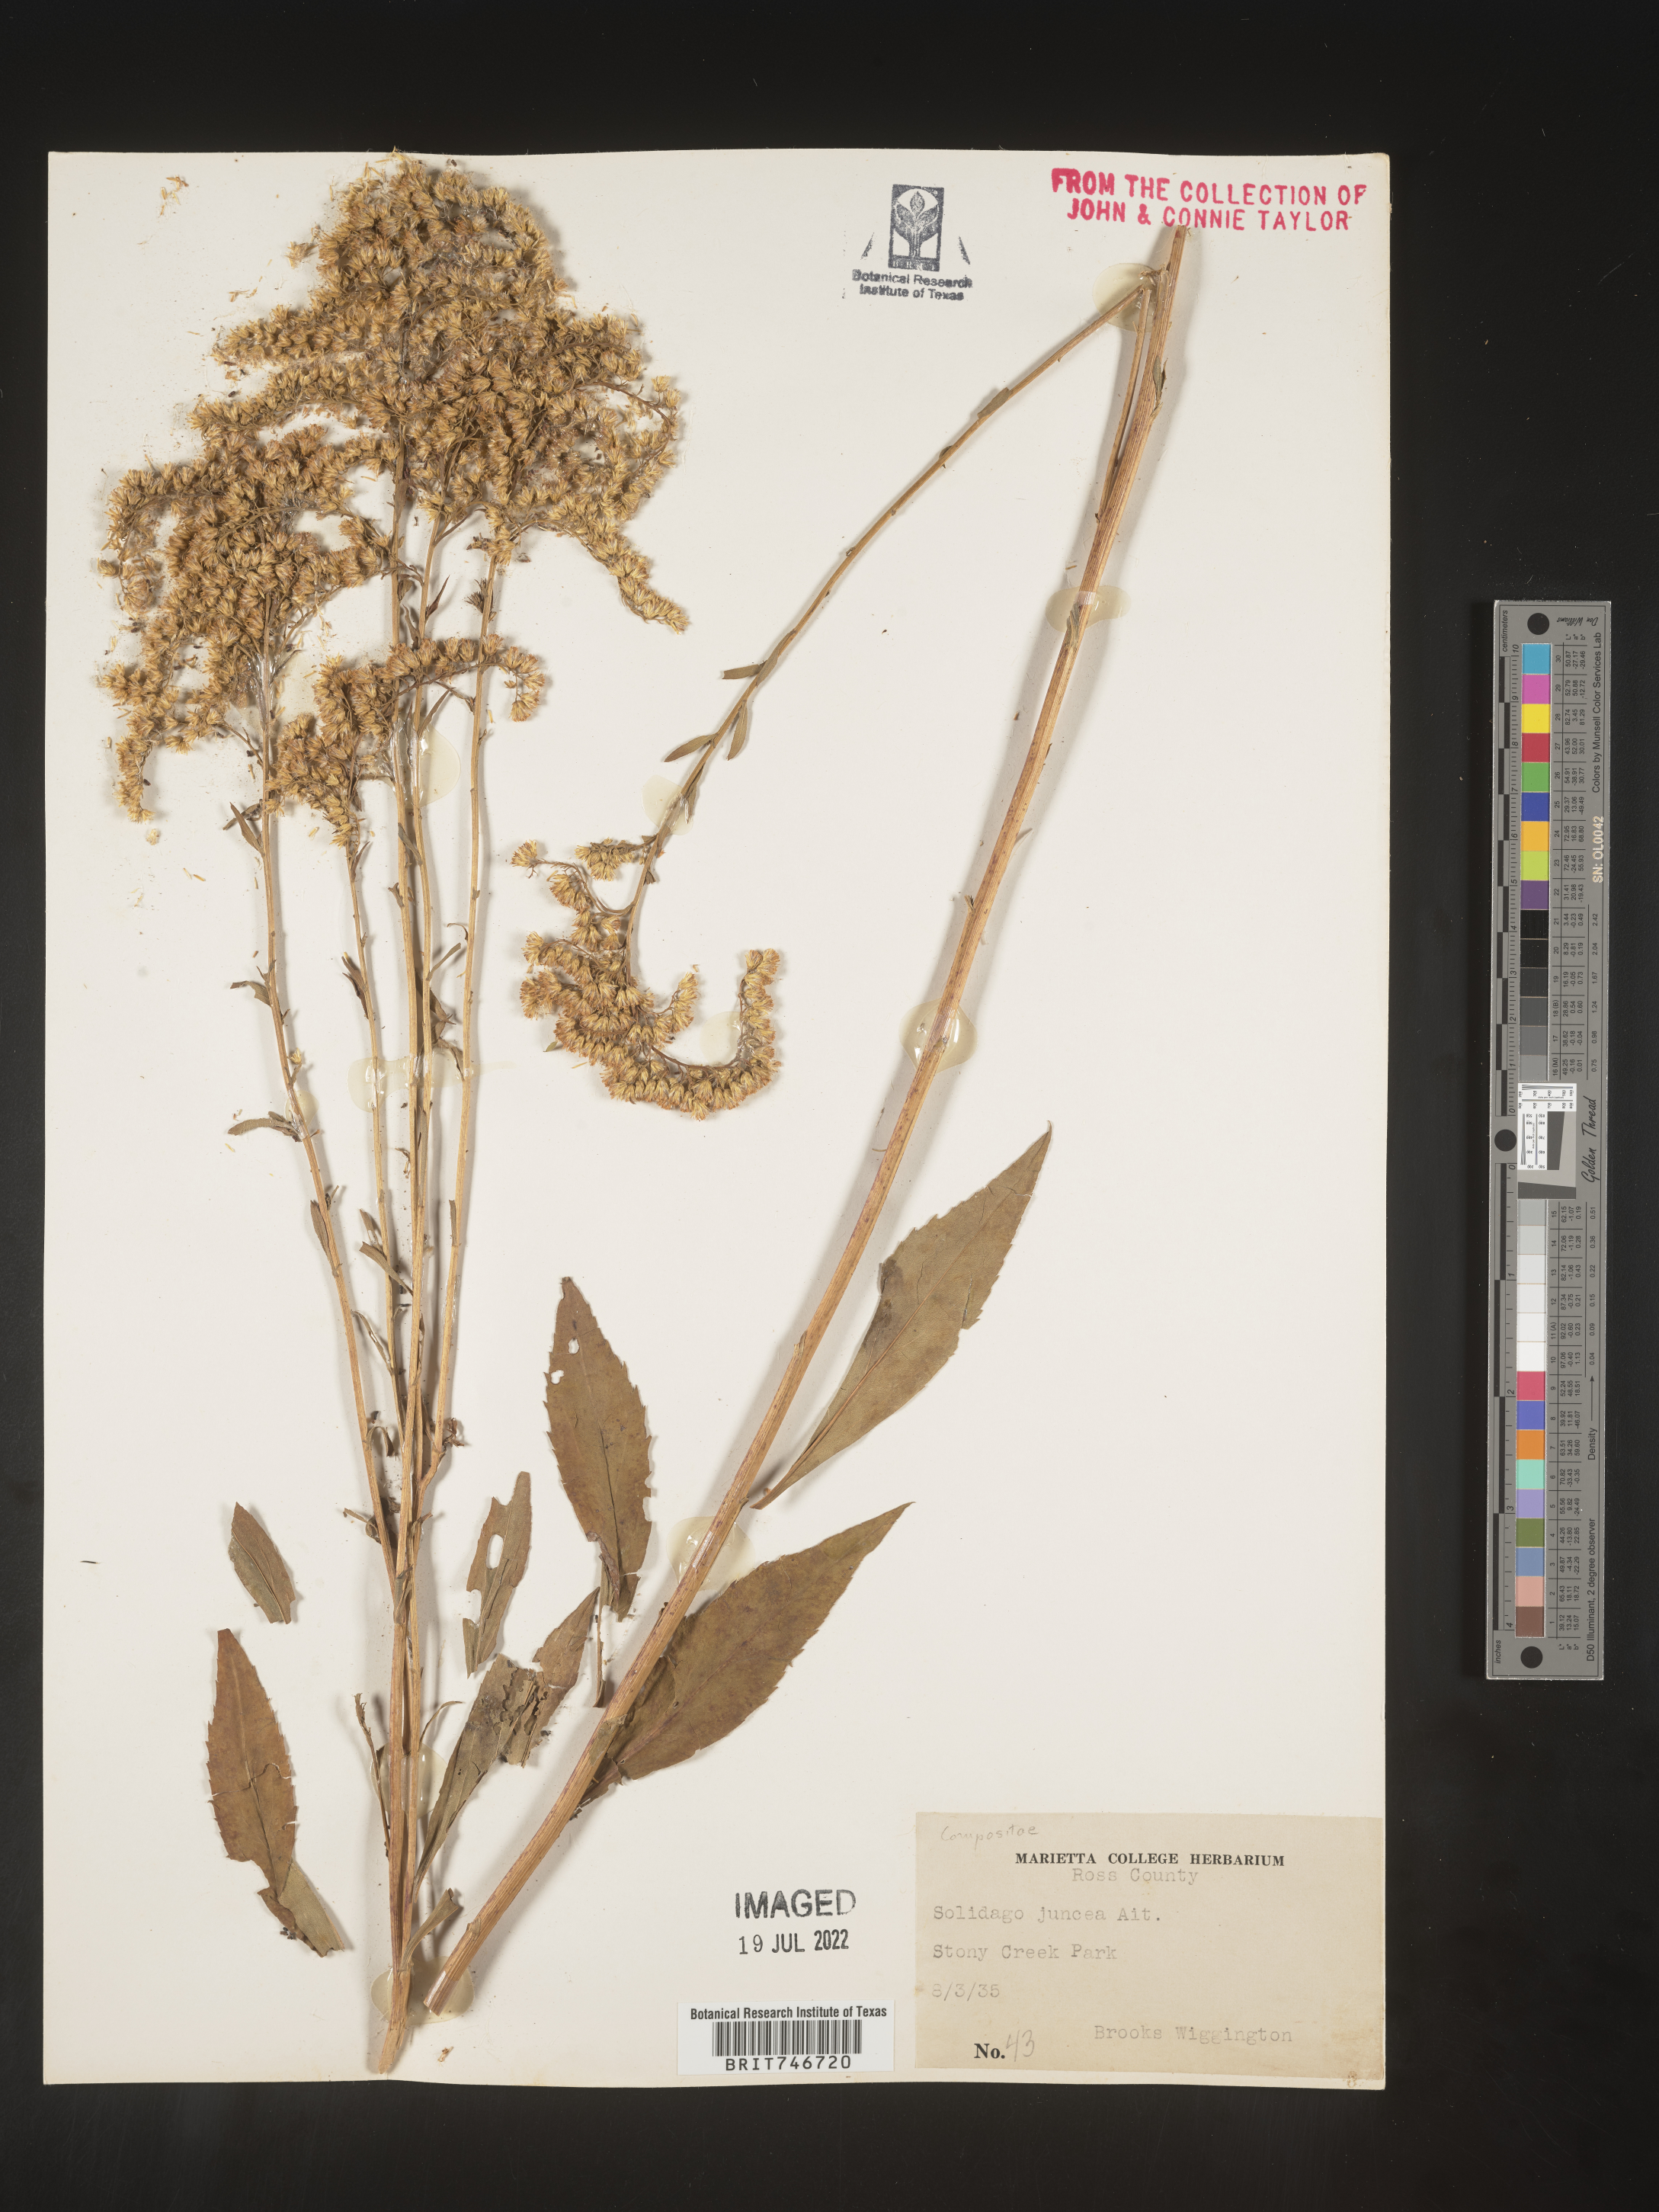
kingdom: Plantae
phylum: Tracheophyta
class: Magnoliopsida
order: Asterales
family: Asteraceae
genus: Solidago
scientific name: Solidago juncea
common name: Early goldenrod
